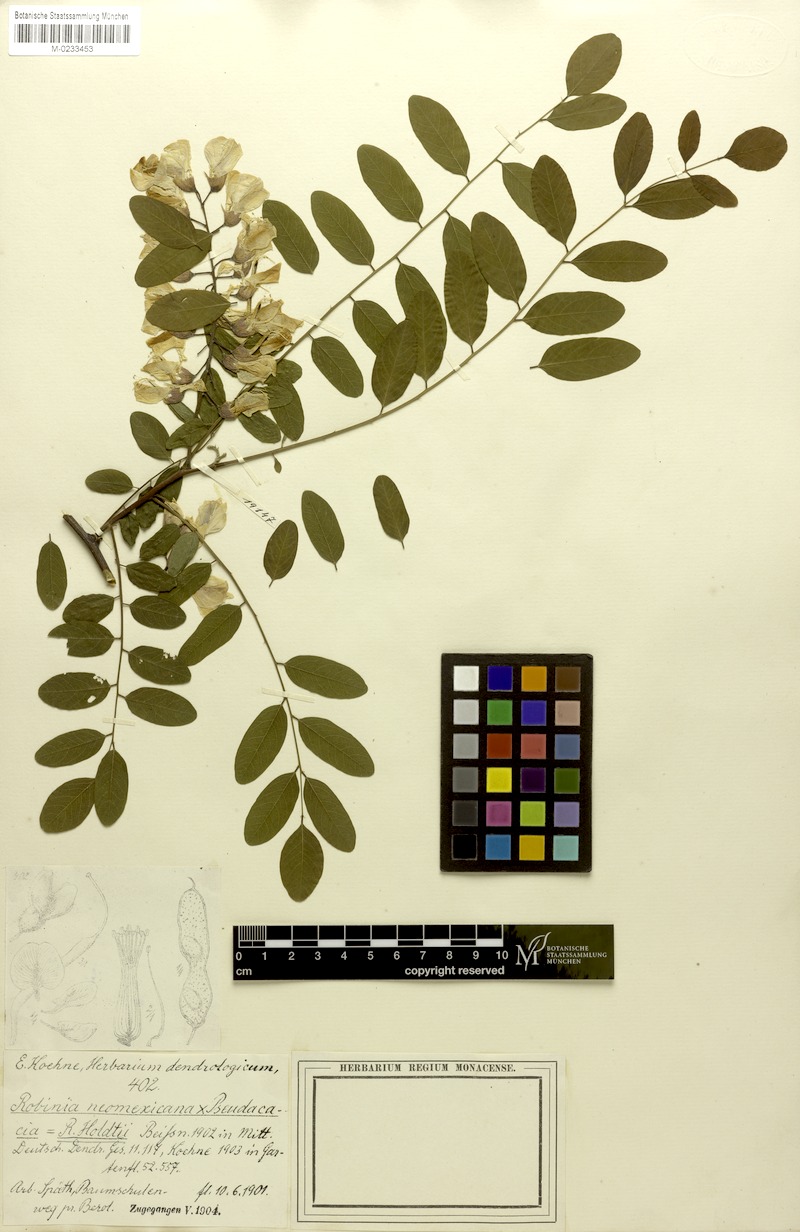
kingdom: Plantae
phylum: Tracheophyta
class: Magnoliopsida
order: Fabales
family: Fabaceae
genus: Robinia
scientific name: Robinia holdtii
